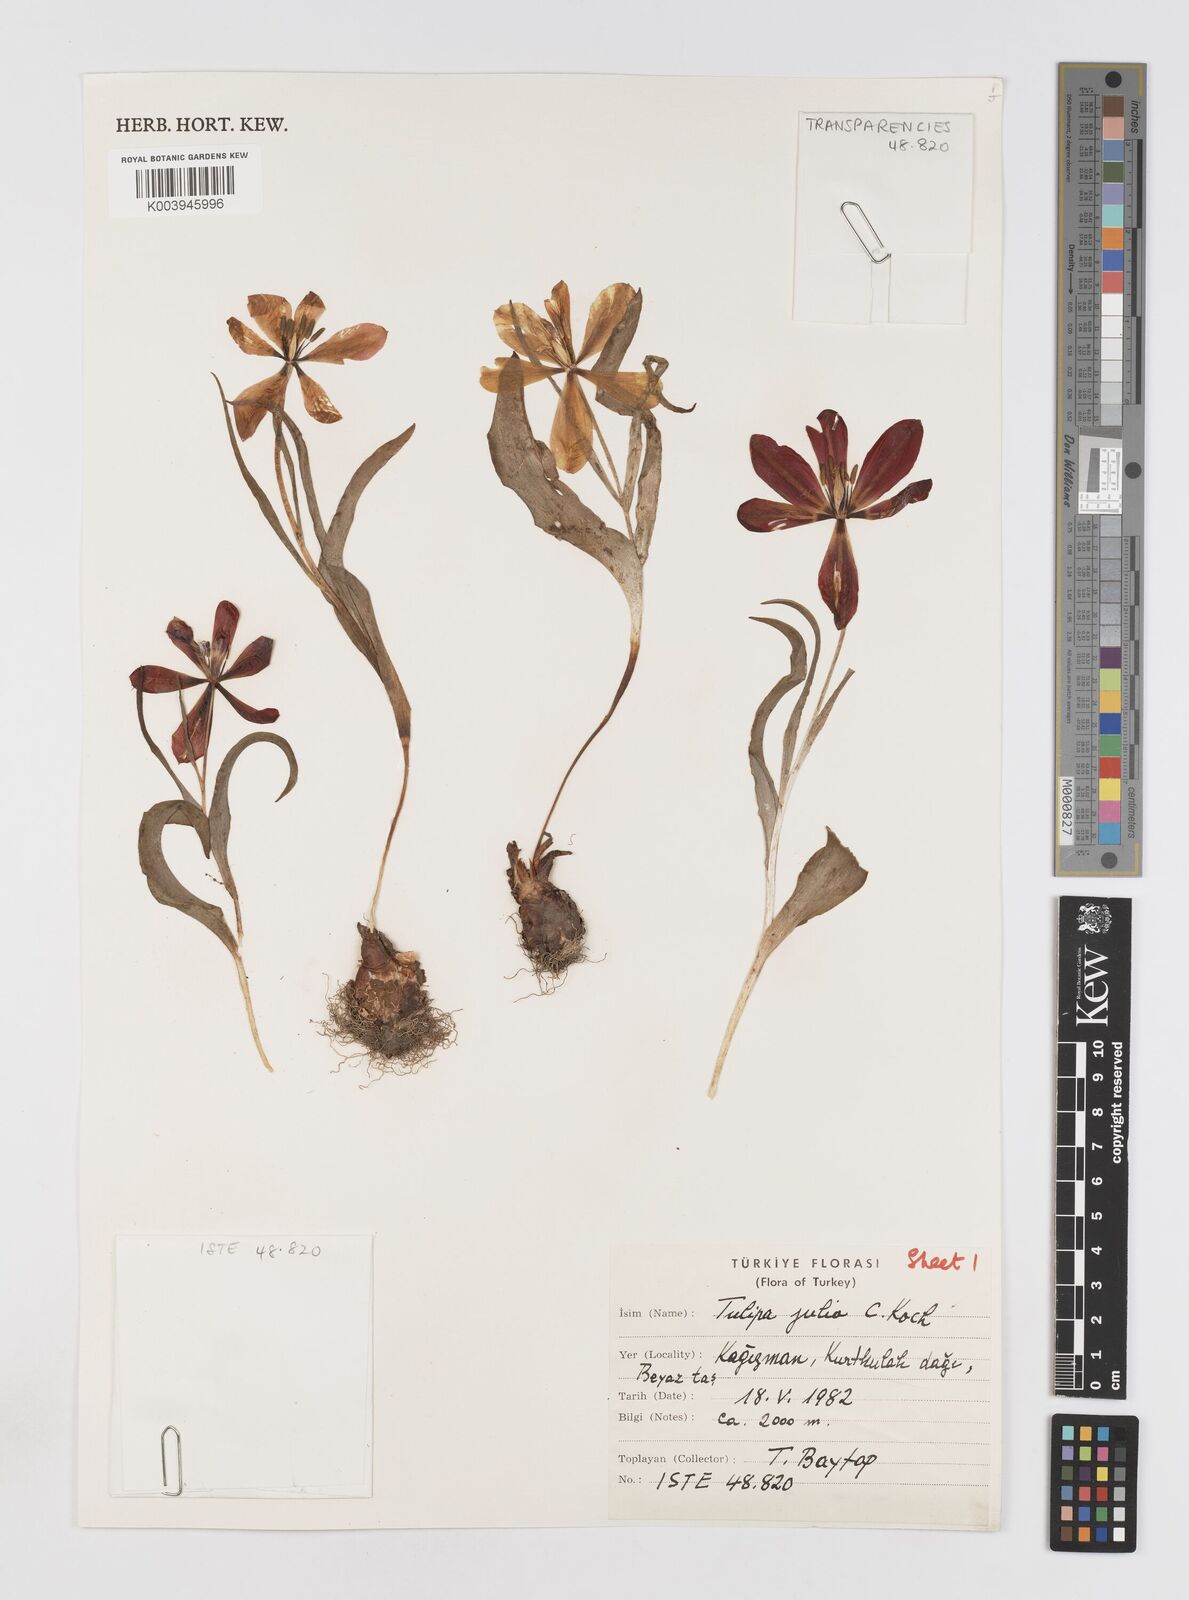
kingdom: Plantae
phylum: Tracheophyta
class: Liliopsida
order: Liliales
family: Liliaceae
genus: Tulipa
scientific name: Tulipa julia
